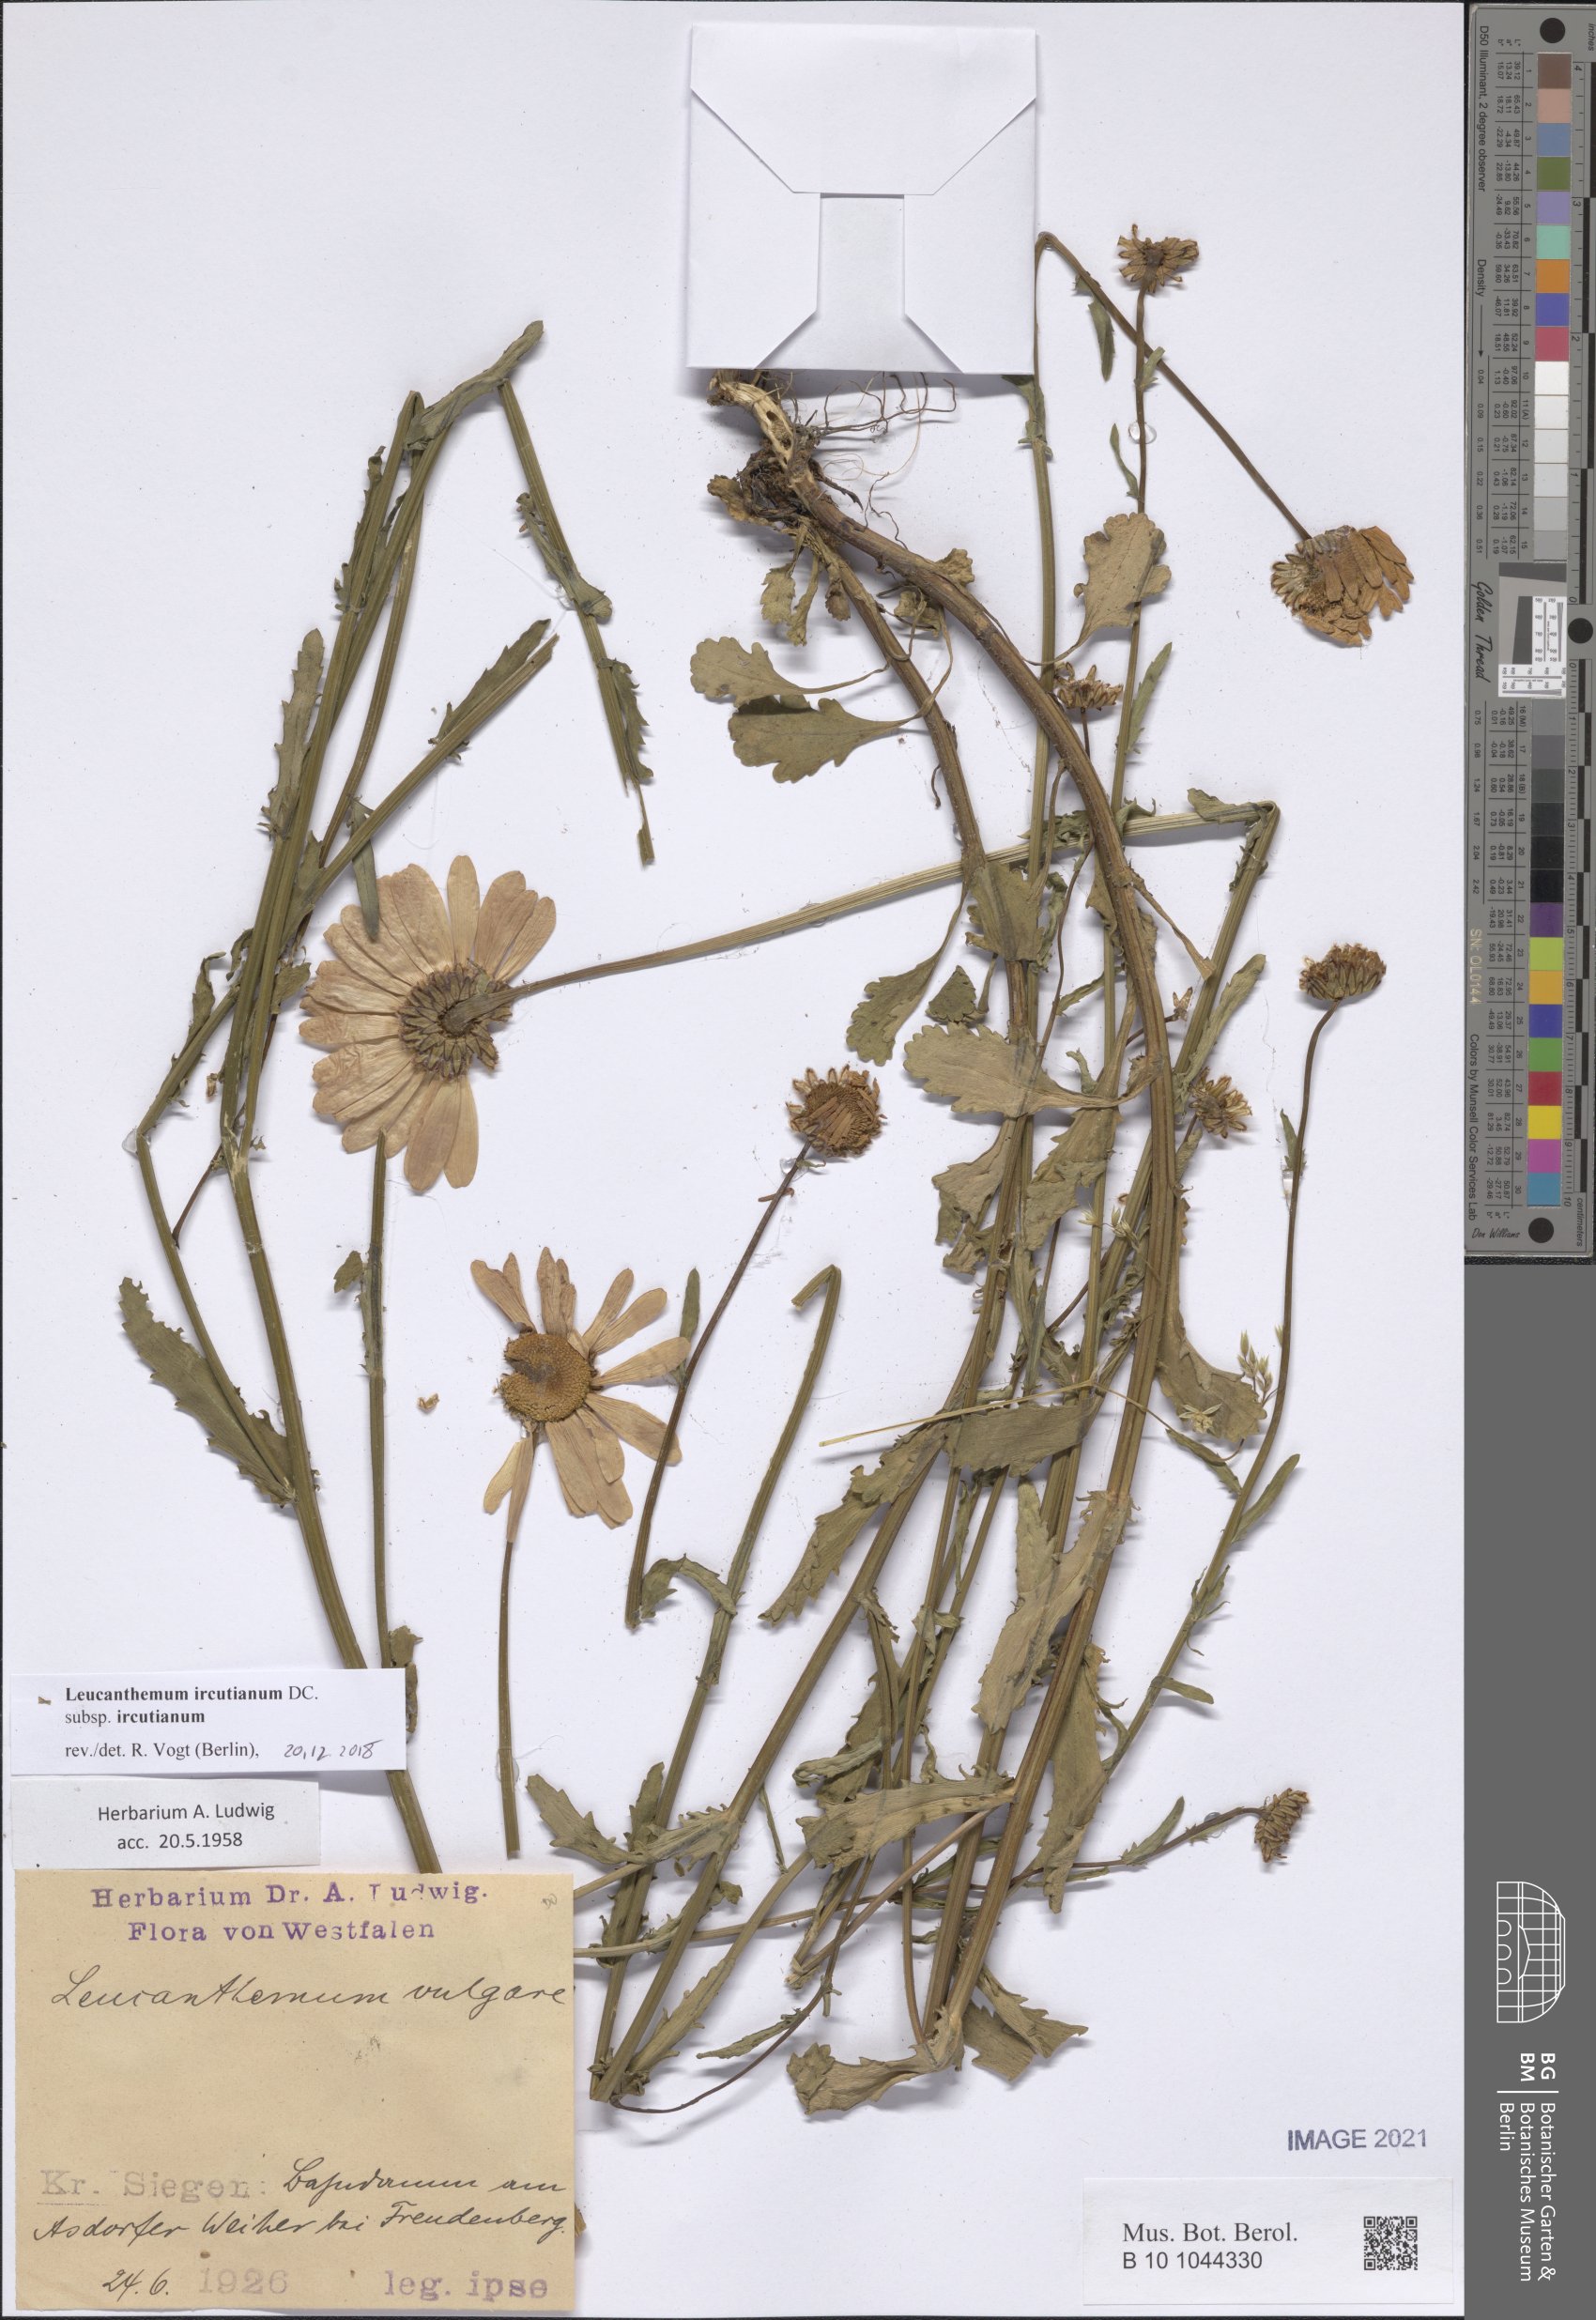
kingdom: Plantae
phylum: Tracheophyta
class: Magnoliopsida
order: Asterales
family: Asteraceae
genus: Leucanthemum
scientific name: Leucanthemum ircutianum
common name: Daisy
